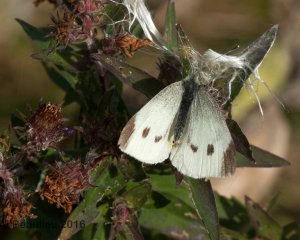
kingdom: Animalia
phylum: Arthropoda
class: Insecta
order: Lepidoptera
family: Pieridae
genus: Pieris
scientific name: Pieris rapae
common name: Cabbage White
